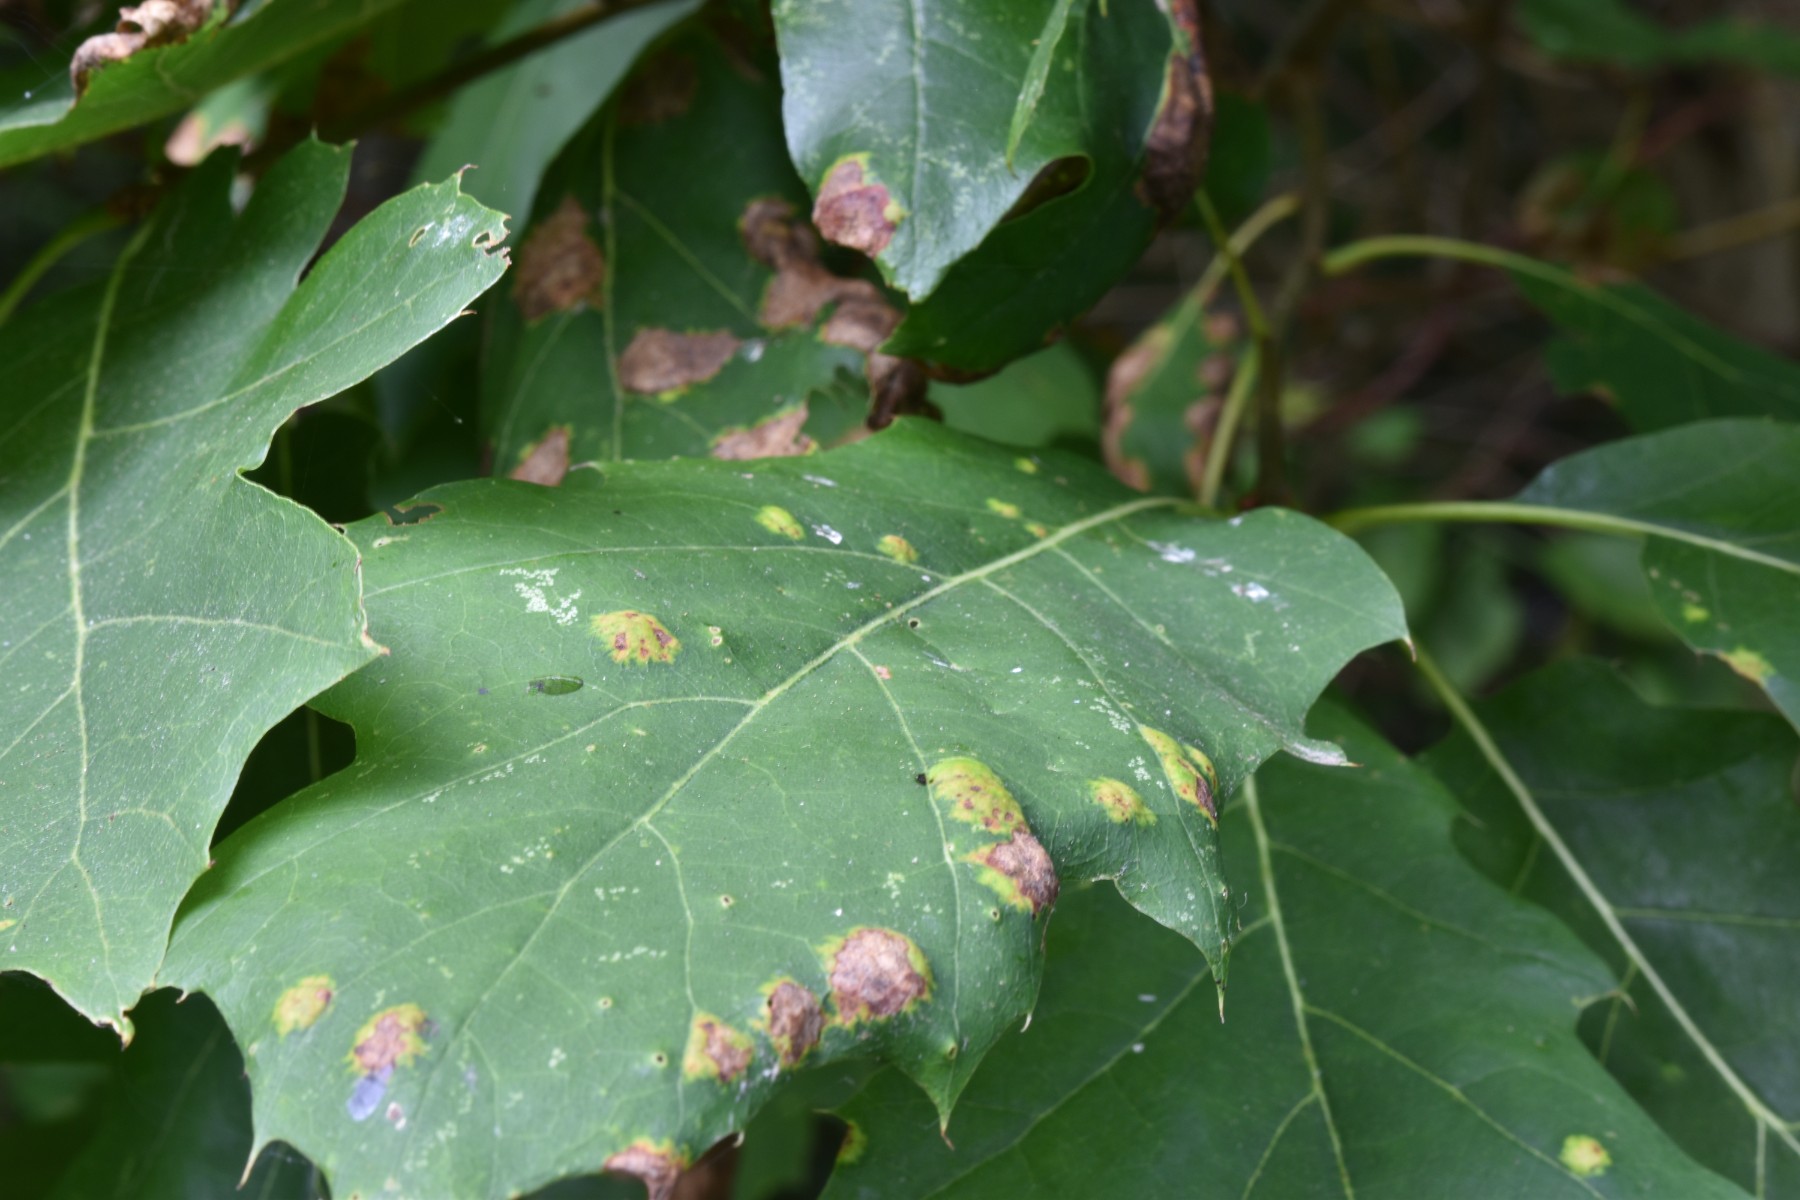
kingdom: Fungi
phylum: Ascomycota
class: Taphrinomycetes
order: Taphrinales
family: Taphrinaceae
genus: Taphrina
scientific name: Taphrina caerulescens
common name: Oak leaf blister
